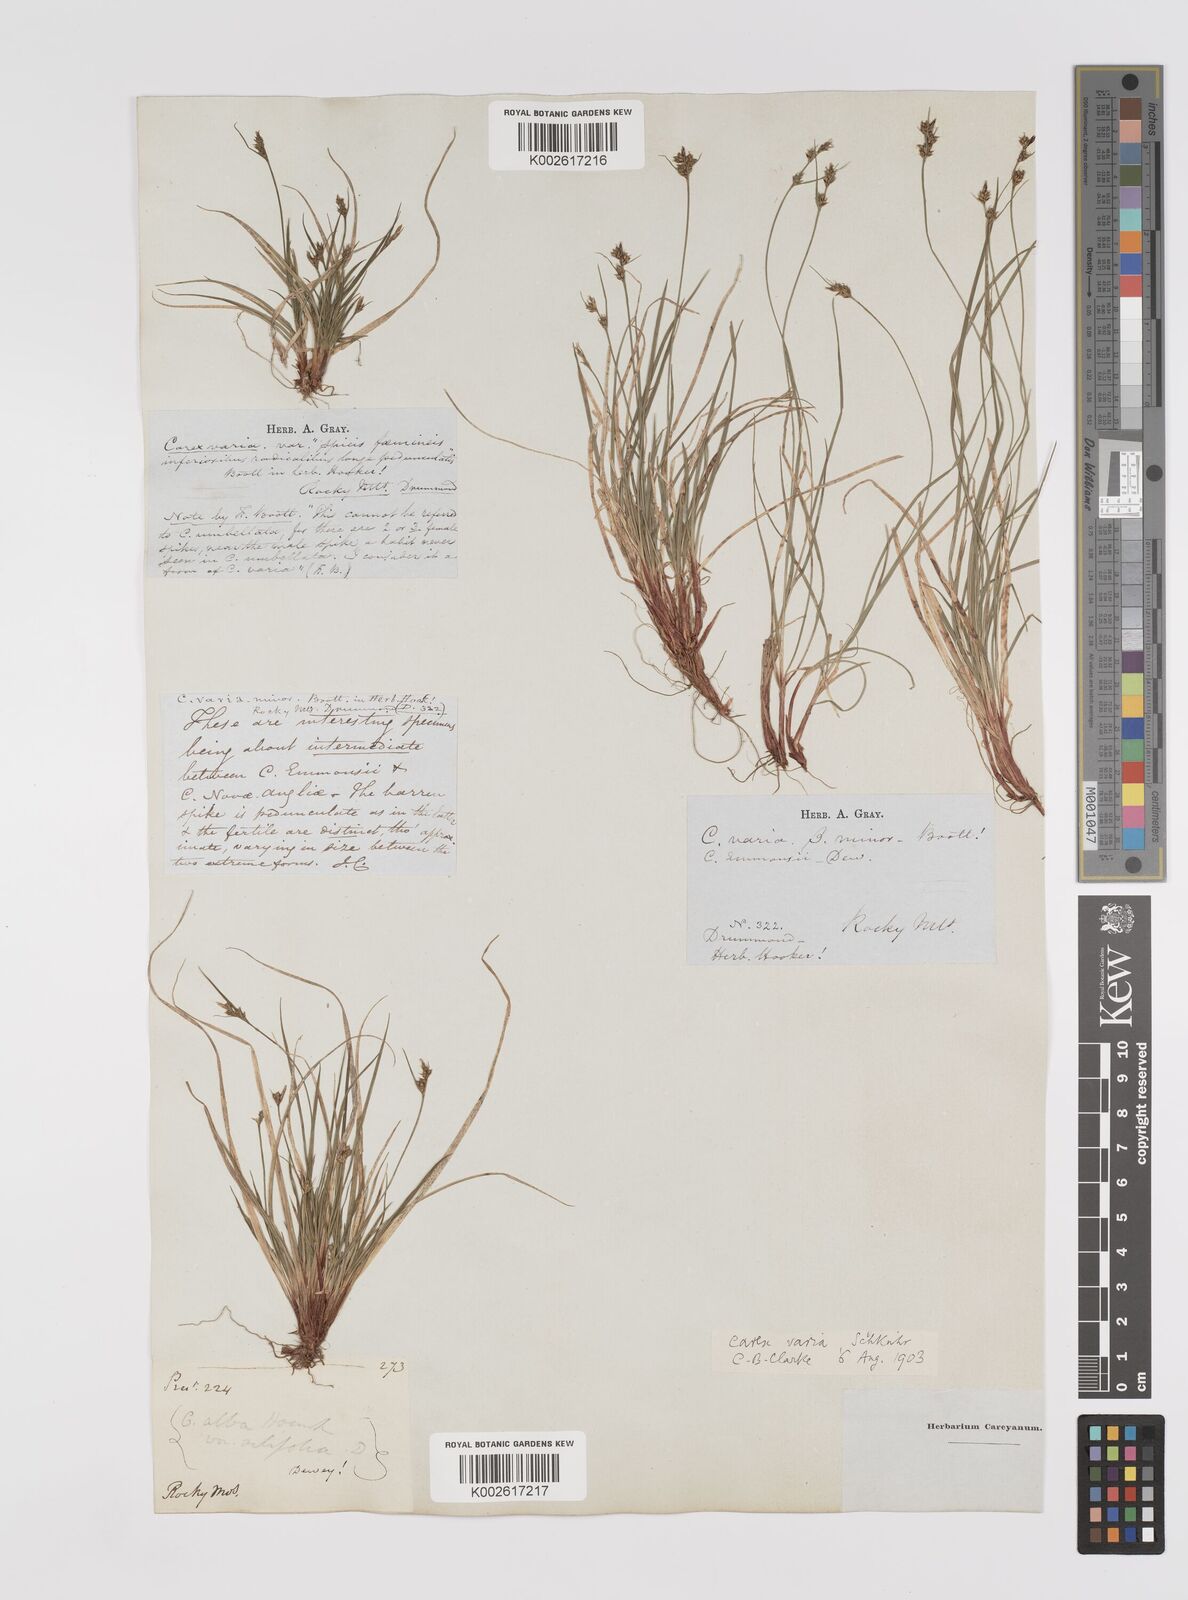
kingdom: Plantae
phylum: Tracheophyta
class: Liliopsida
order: Poales
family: Cyperaceae
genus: Carex
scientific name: Carex albicans
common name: Bellow-beaked sedge
